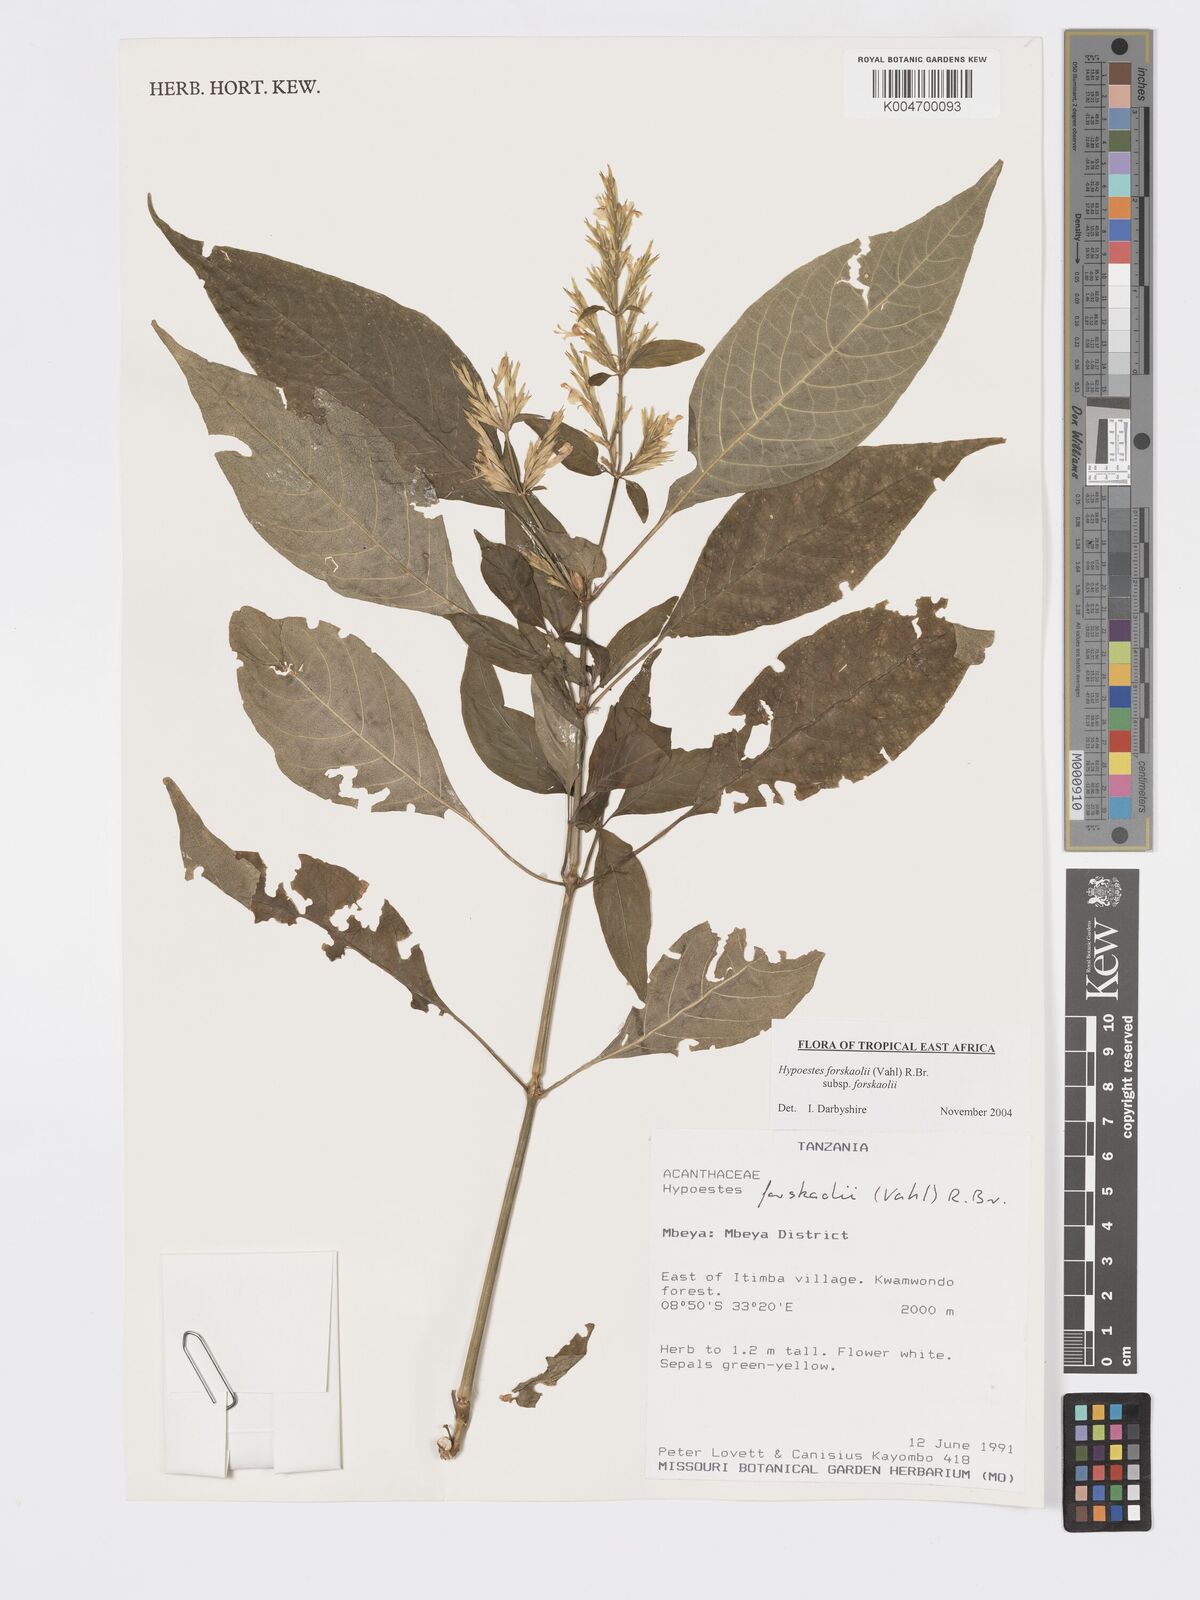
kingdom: Plantae
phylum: Tracheophyta
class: Magnoliopsida
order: Lamiales
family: Acanthaceae
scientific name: Acanthaceae
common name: Acanthaceae
